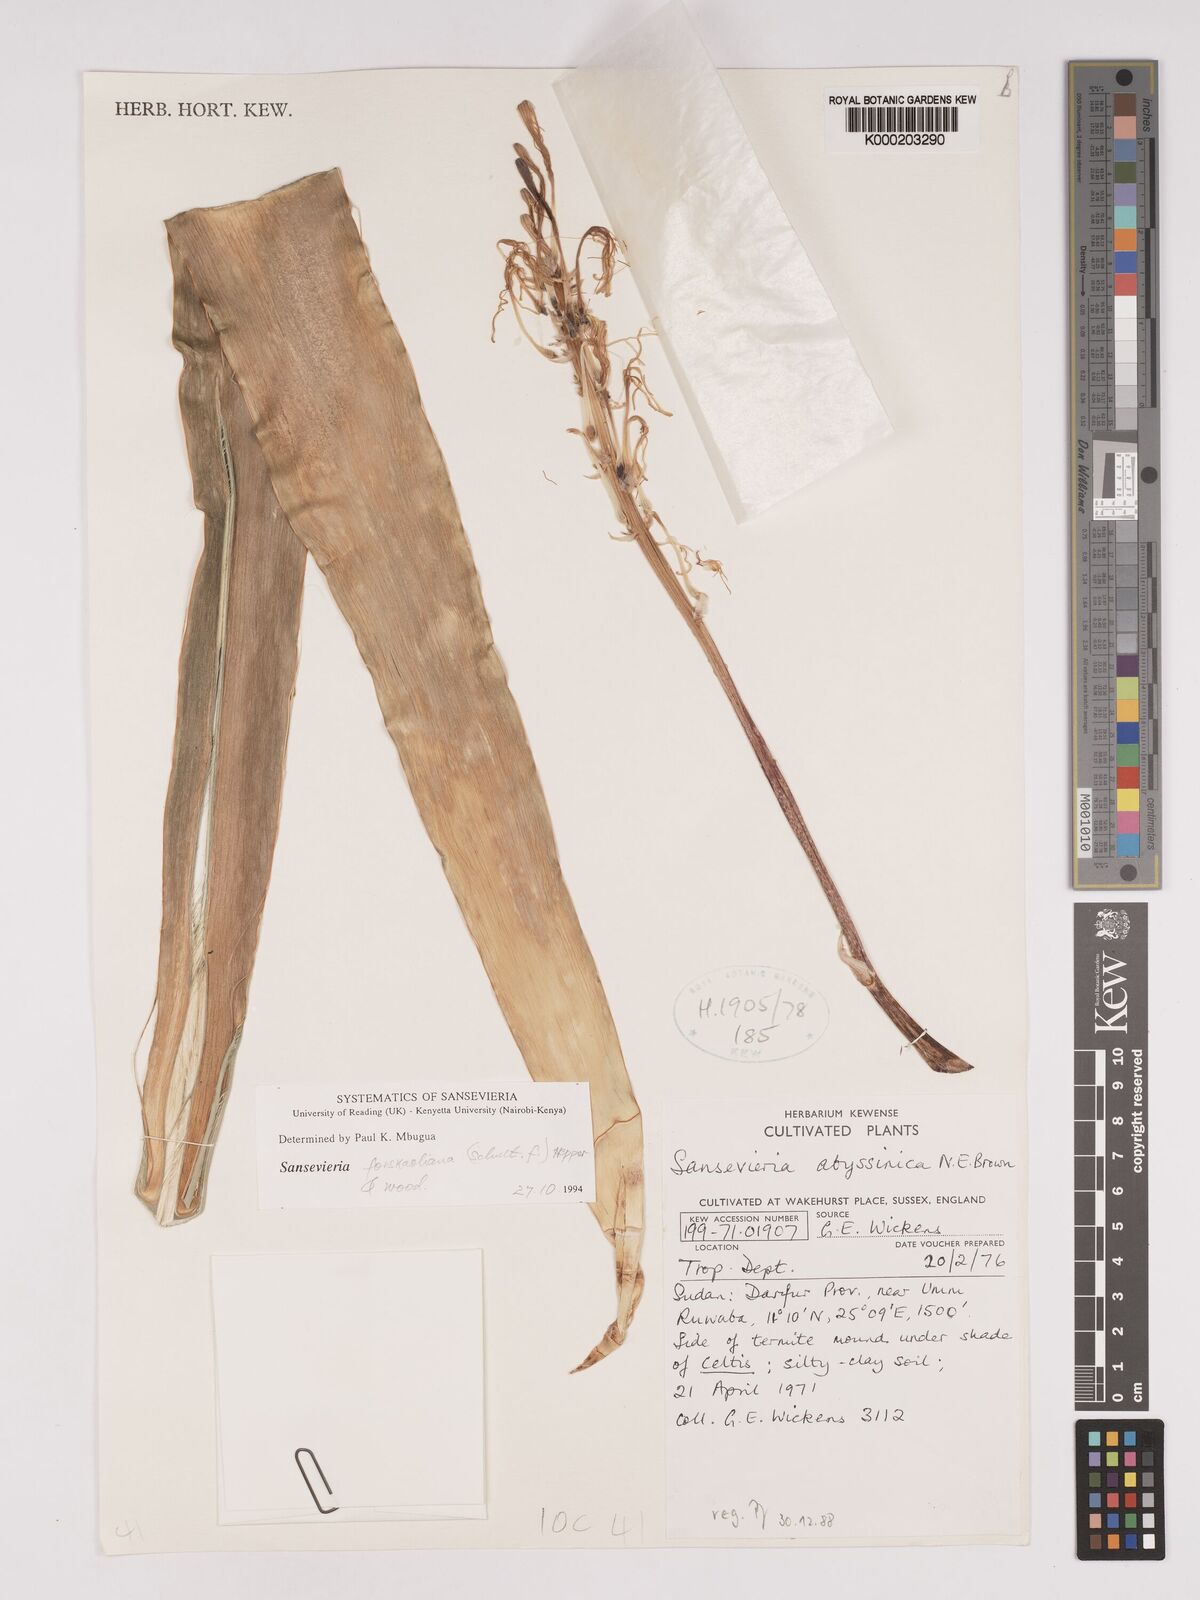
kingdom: Plantae
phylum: Tracheophyta
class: Liliopsida
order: Asparagales
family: Asparagaceae
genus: Dracaena
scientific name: Dracaena forskaliana
